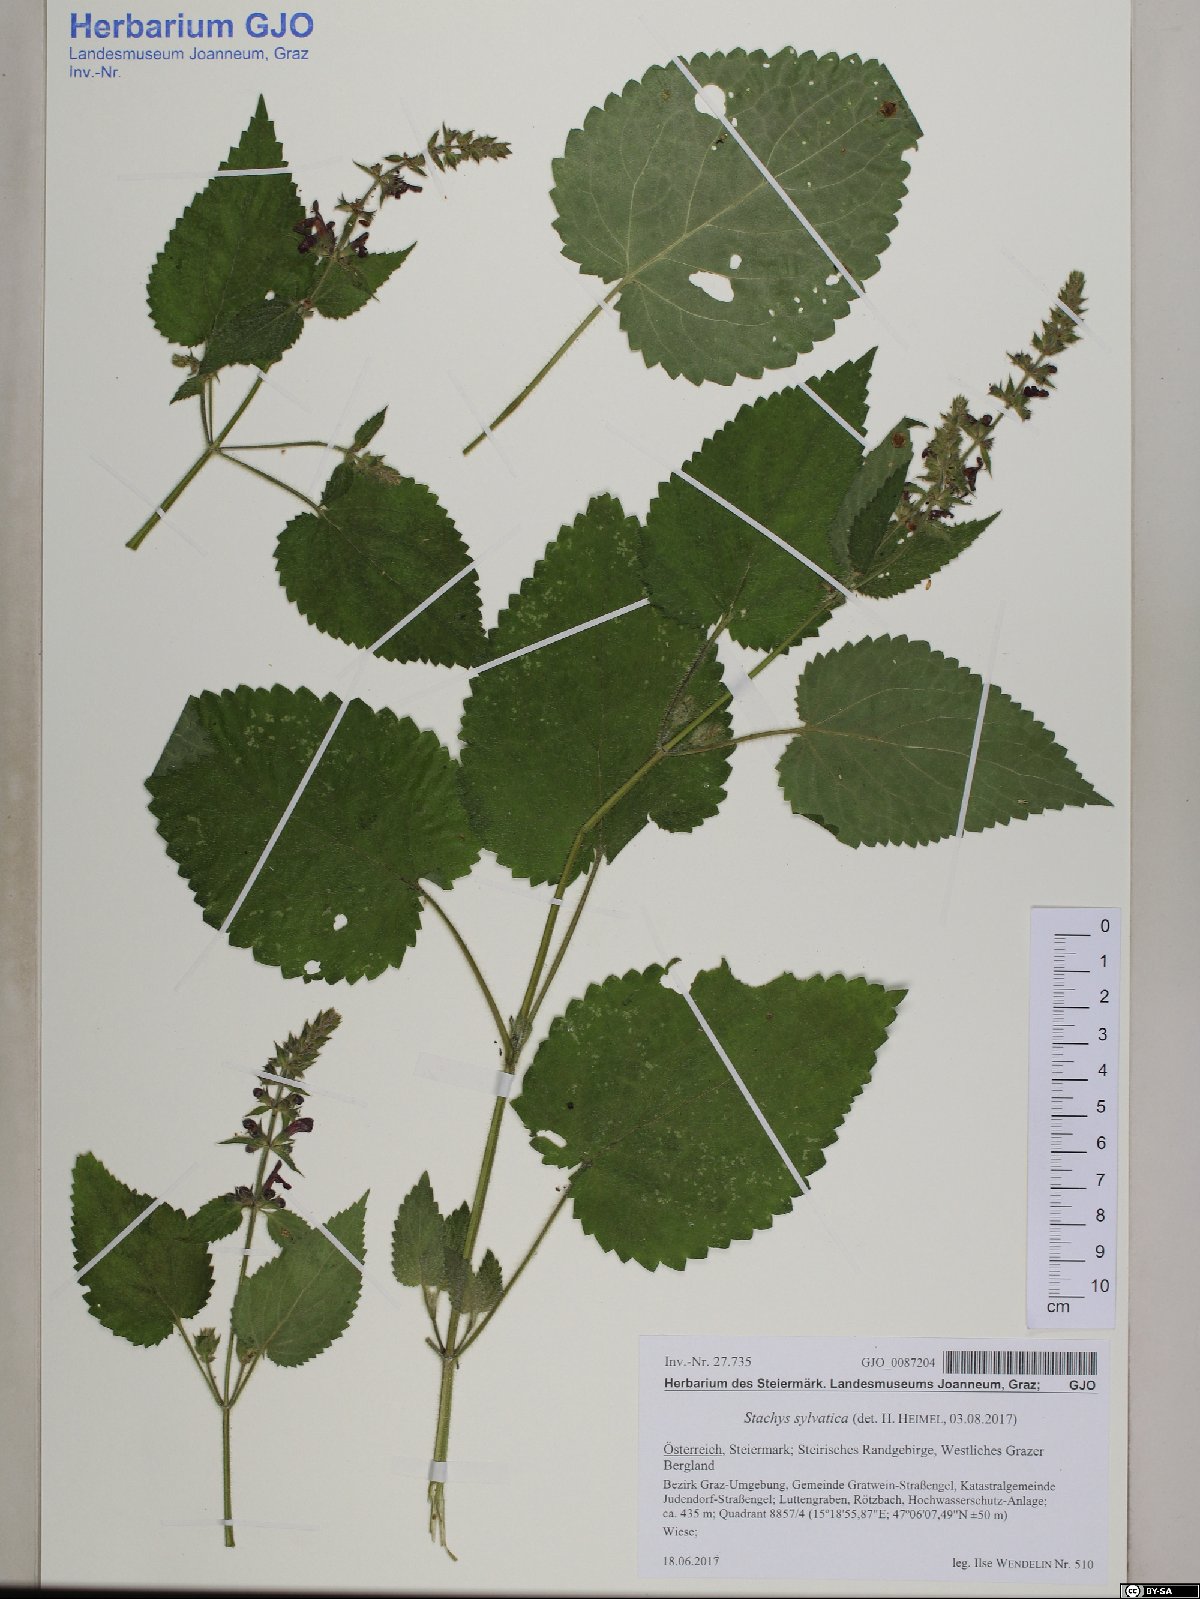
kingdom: Plantae
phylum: Tracheophyta
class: Magnoliopsida
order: Lamiales
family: Lamiaceae
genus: Stachys
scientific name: Stachys sylvatica
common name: Hedge woundwort
